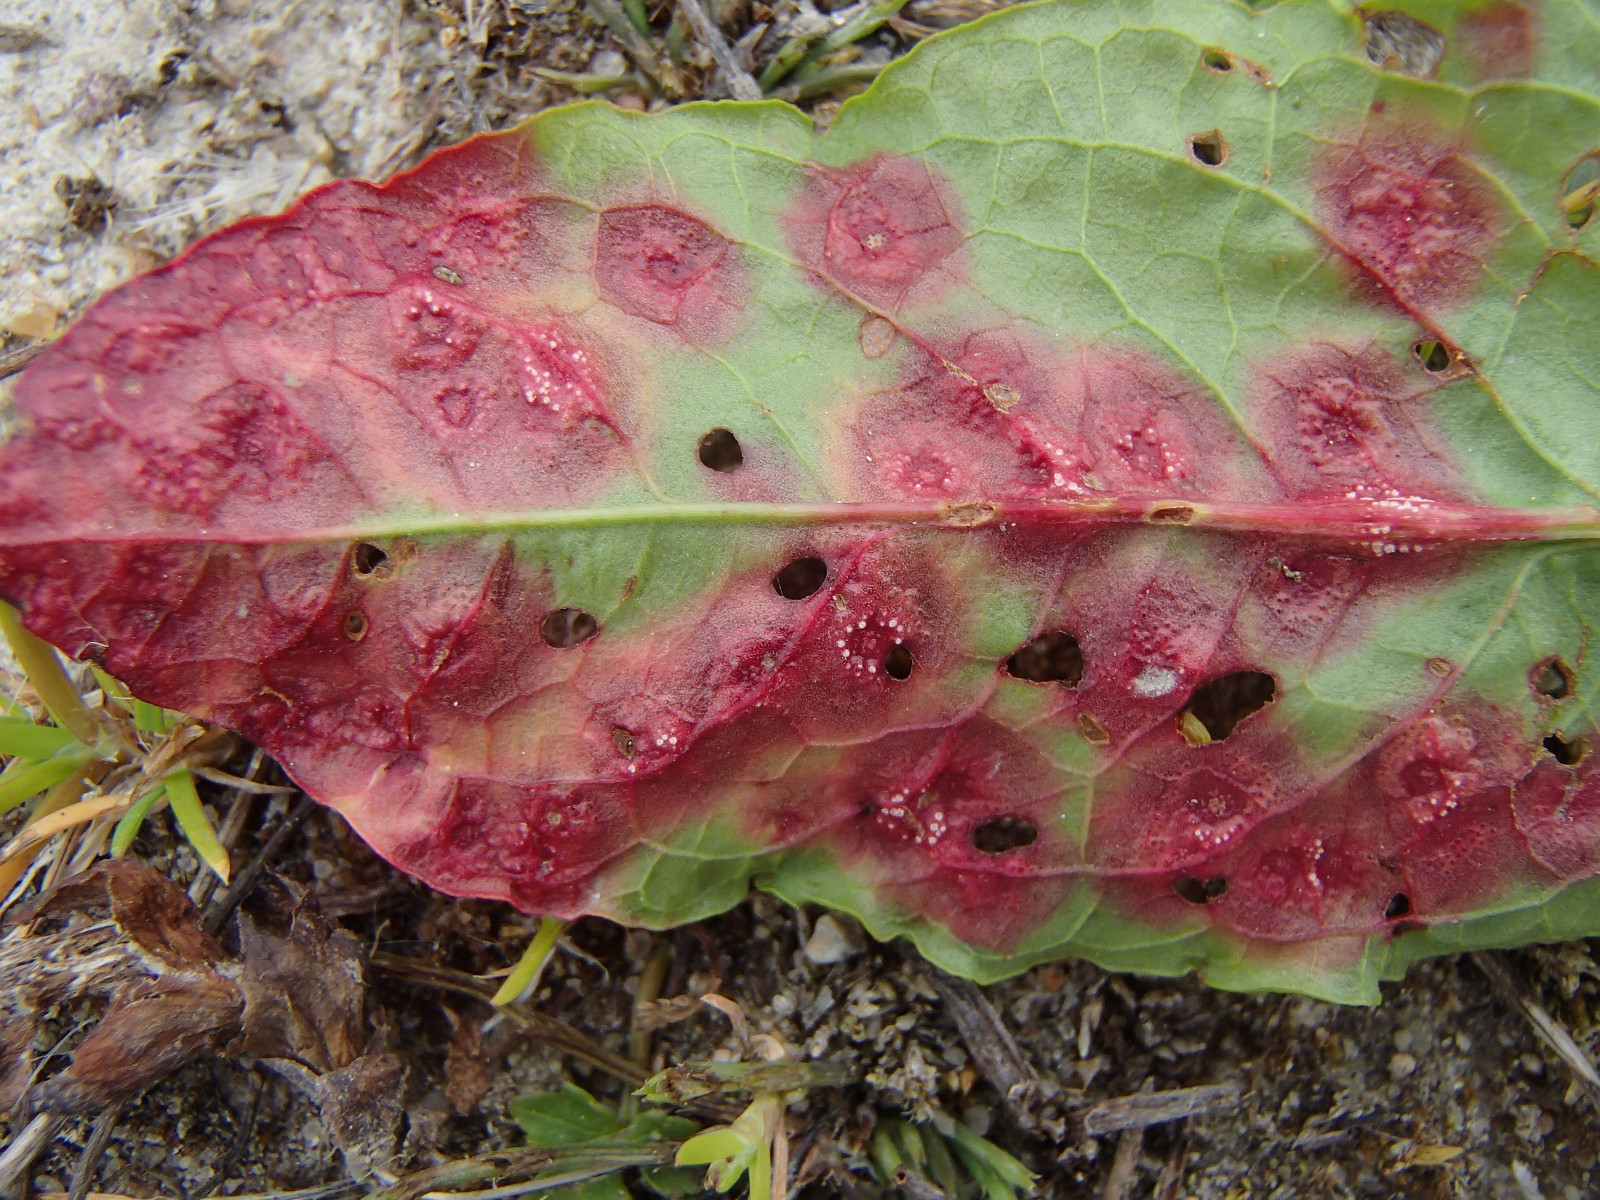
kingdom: Fungi
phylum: Basidiomycota
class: Pucciniomycetes
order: Pucciniales
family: Pucciniaceae
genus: Puccinia
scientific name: Puccinia phragmitis
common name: tagrør-tvecellerust
